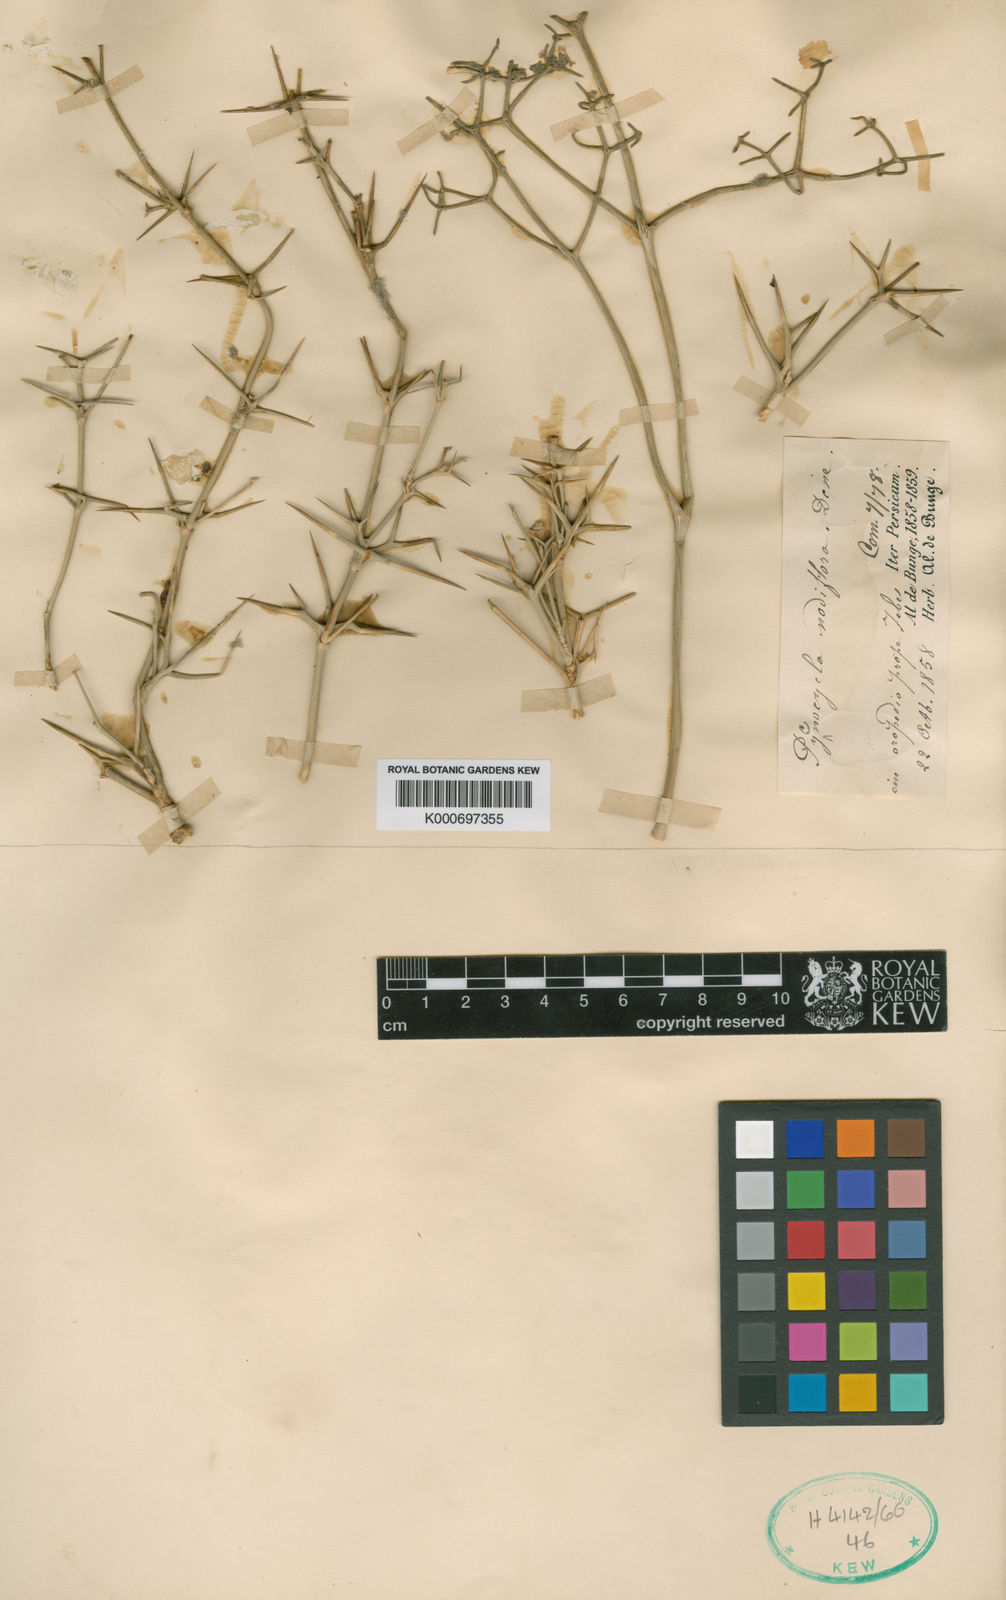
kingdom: Plantae
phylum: Tracheophyta
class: Magnoliopsida
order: Apiales
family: Apiaceae
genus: Pycnocycla
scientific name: Pycnocycla nodiflora
